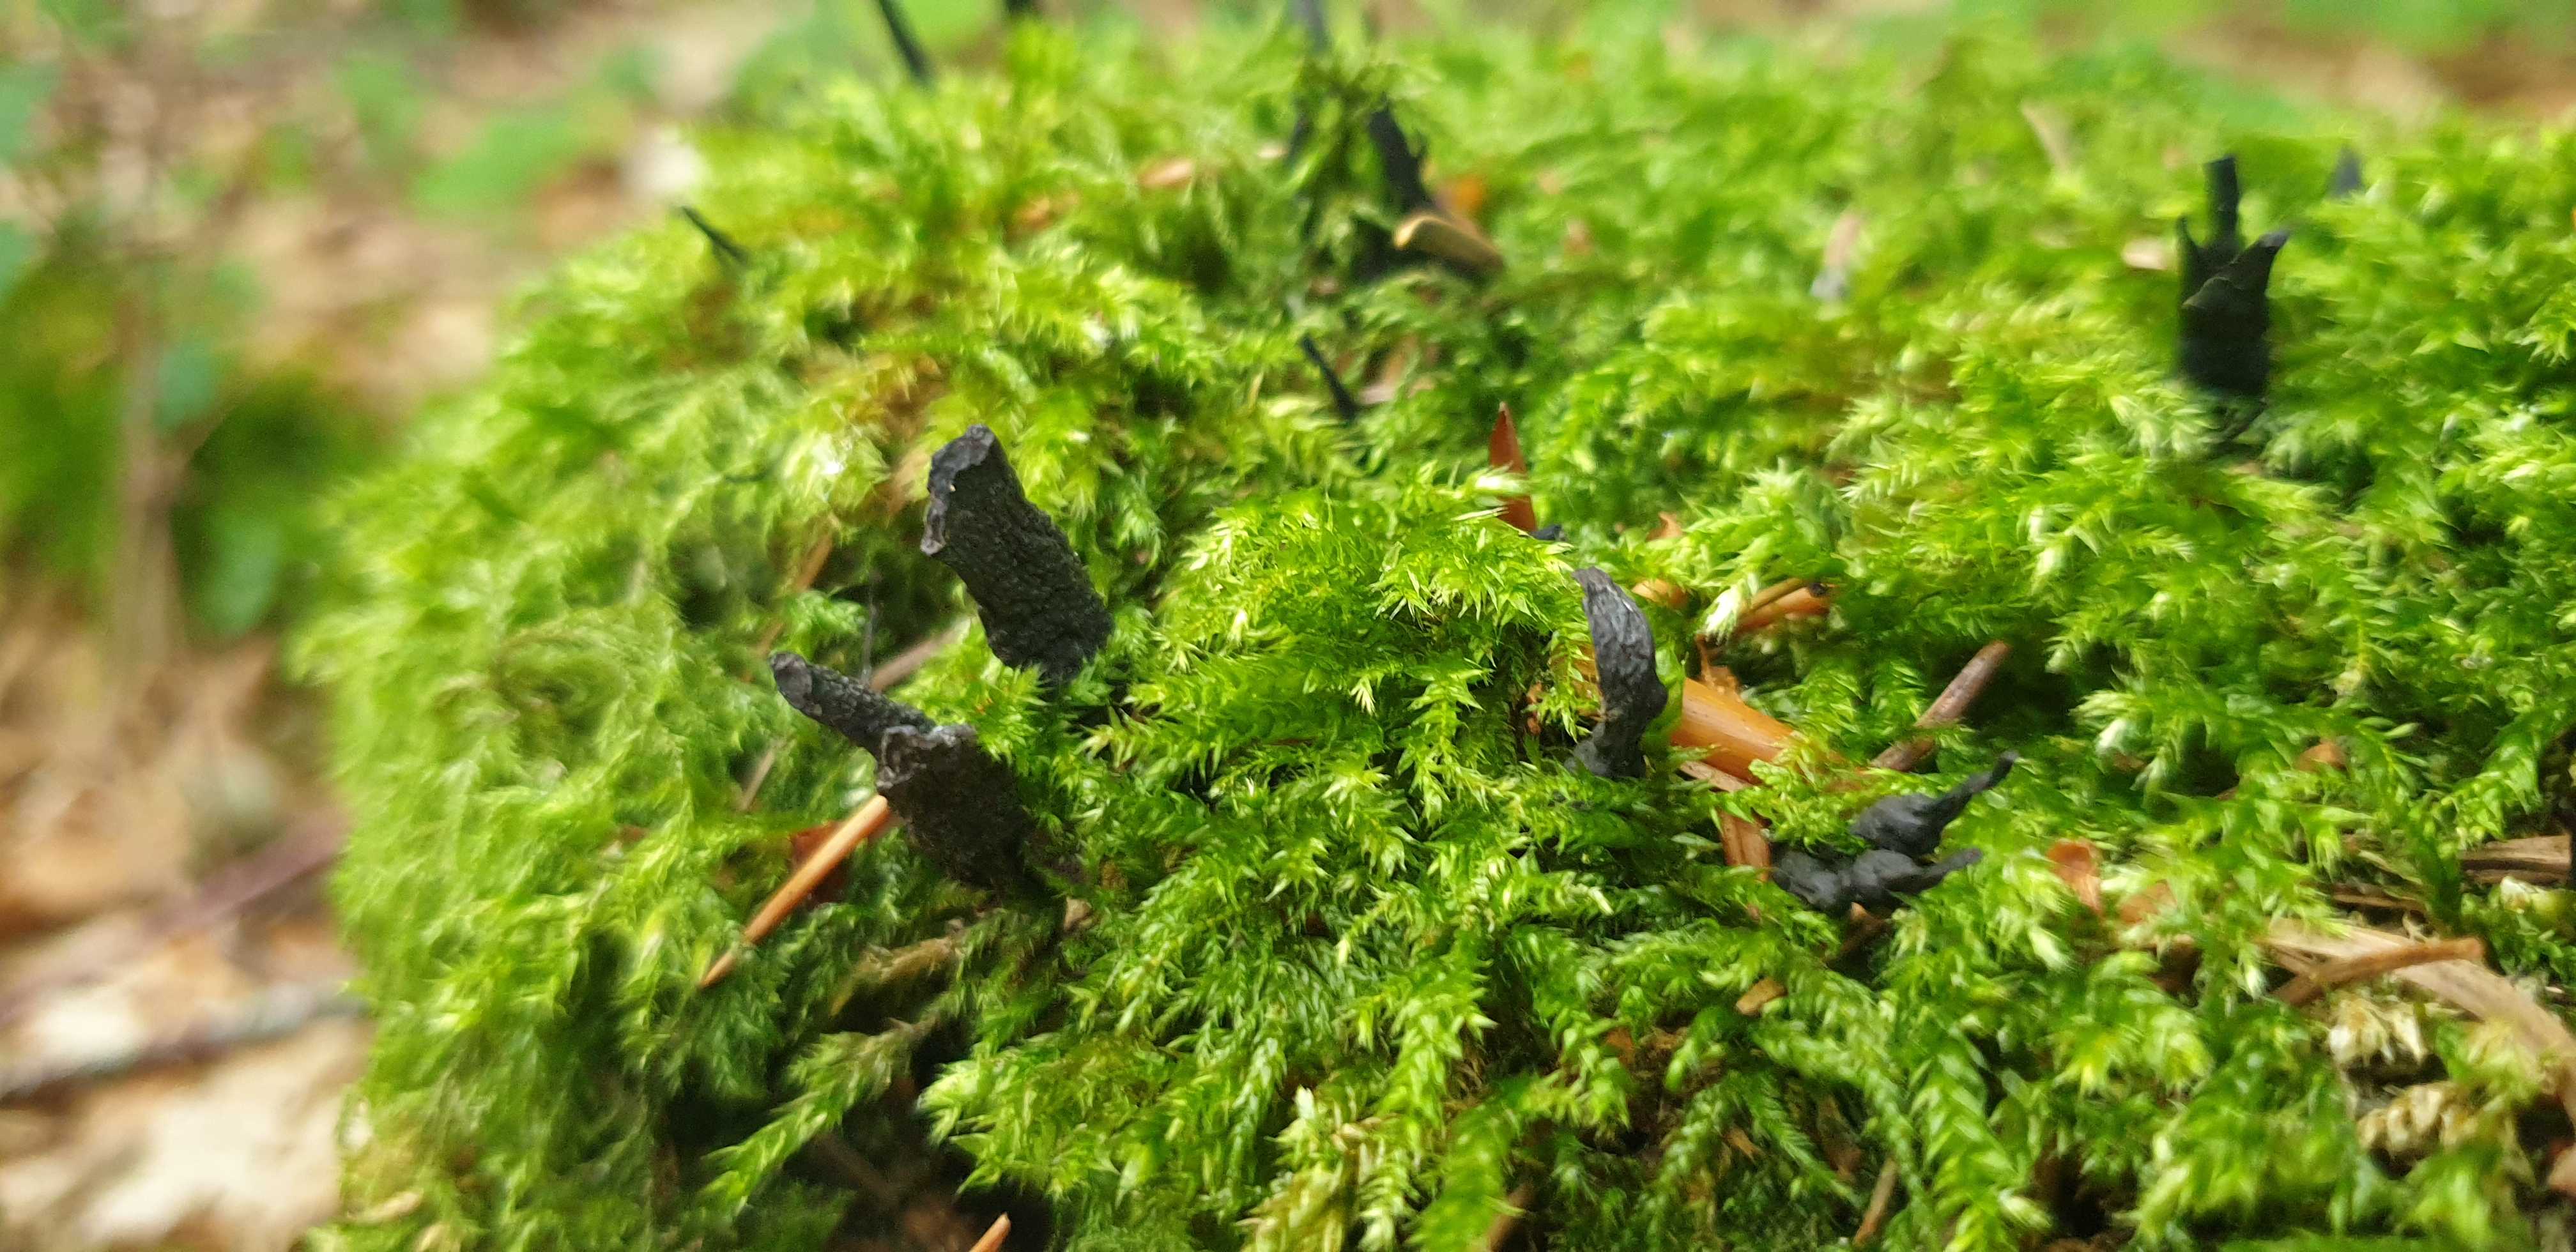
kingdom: Fungi
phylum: Ascomycota
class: Sordariomycetes
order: Xylariales
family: Xylariaceae
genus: Xylaria
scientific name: Xylaria hypoxylon
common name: grenet stødsvamp
